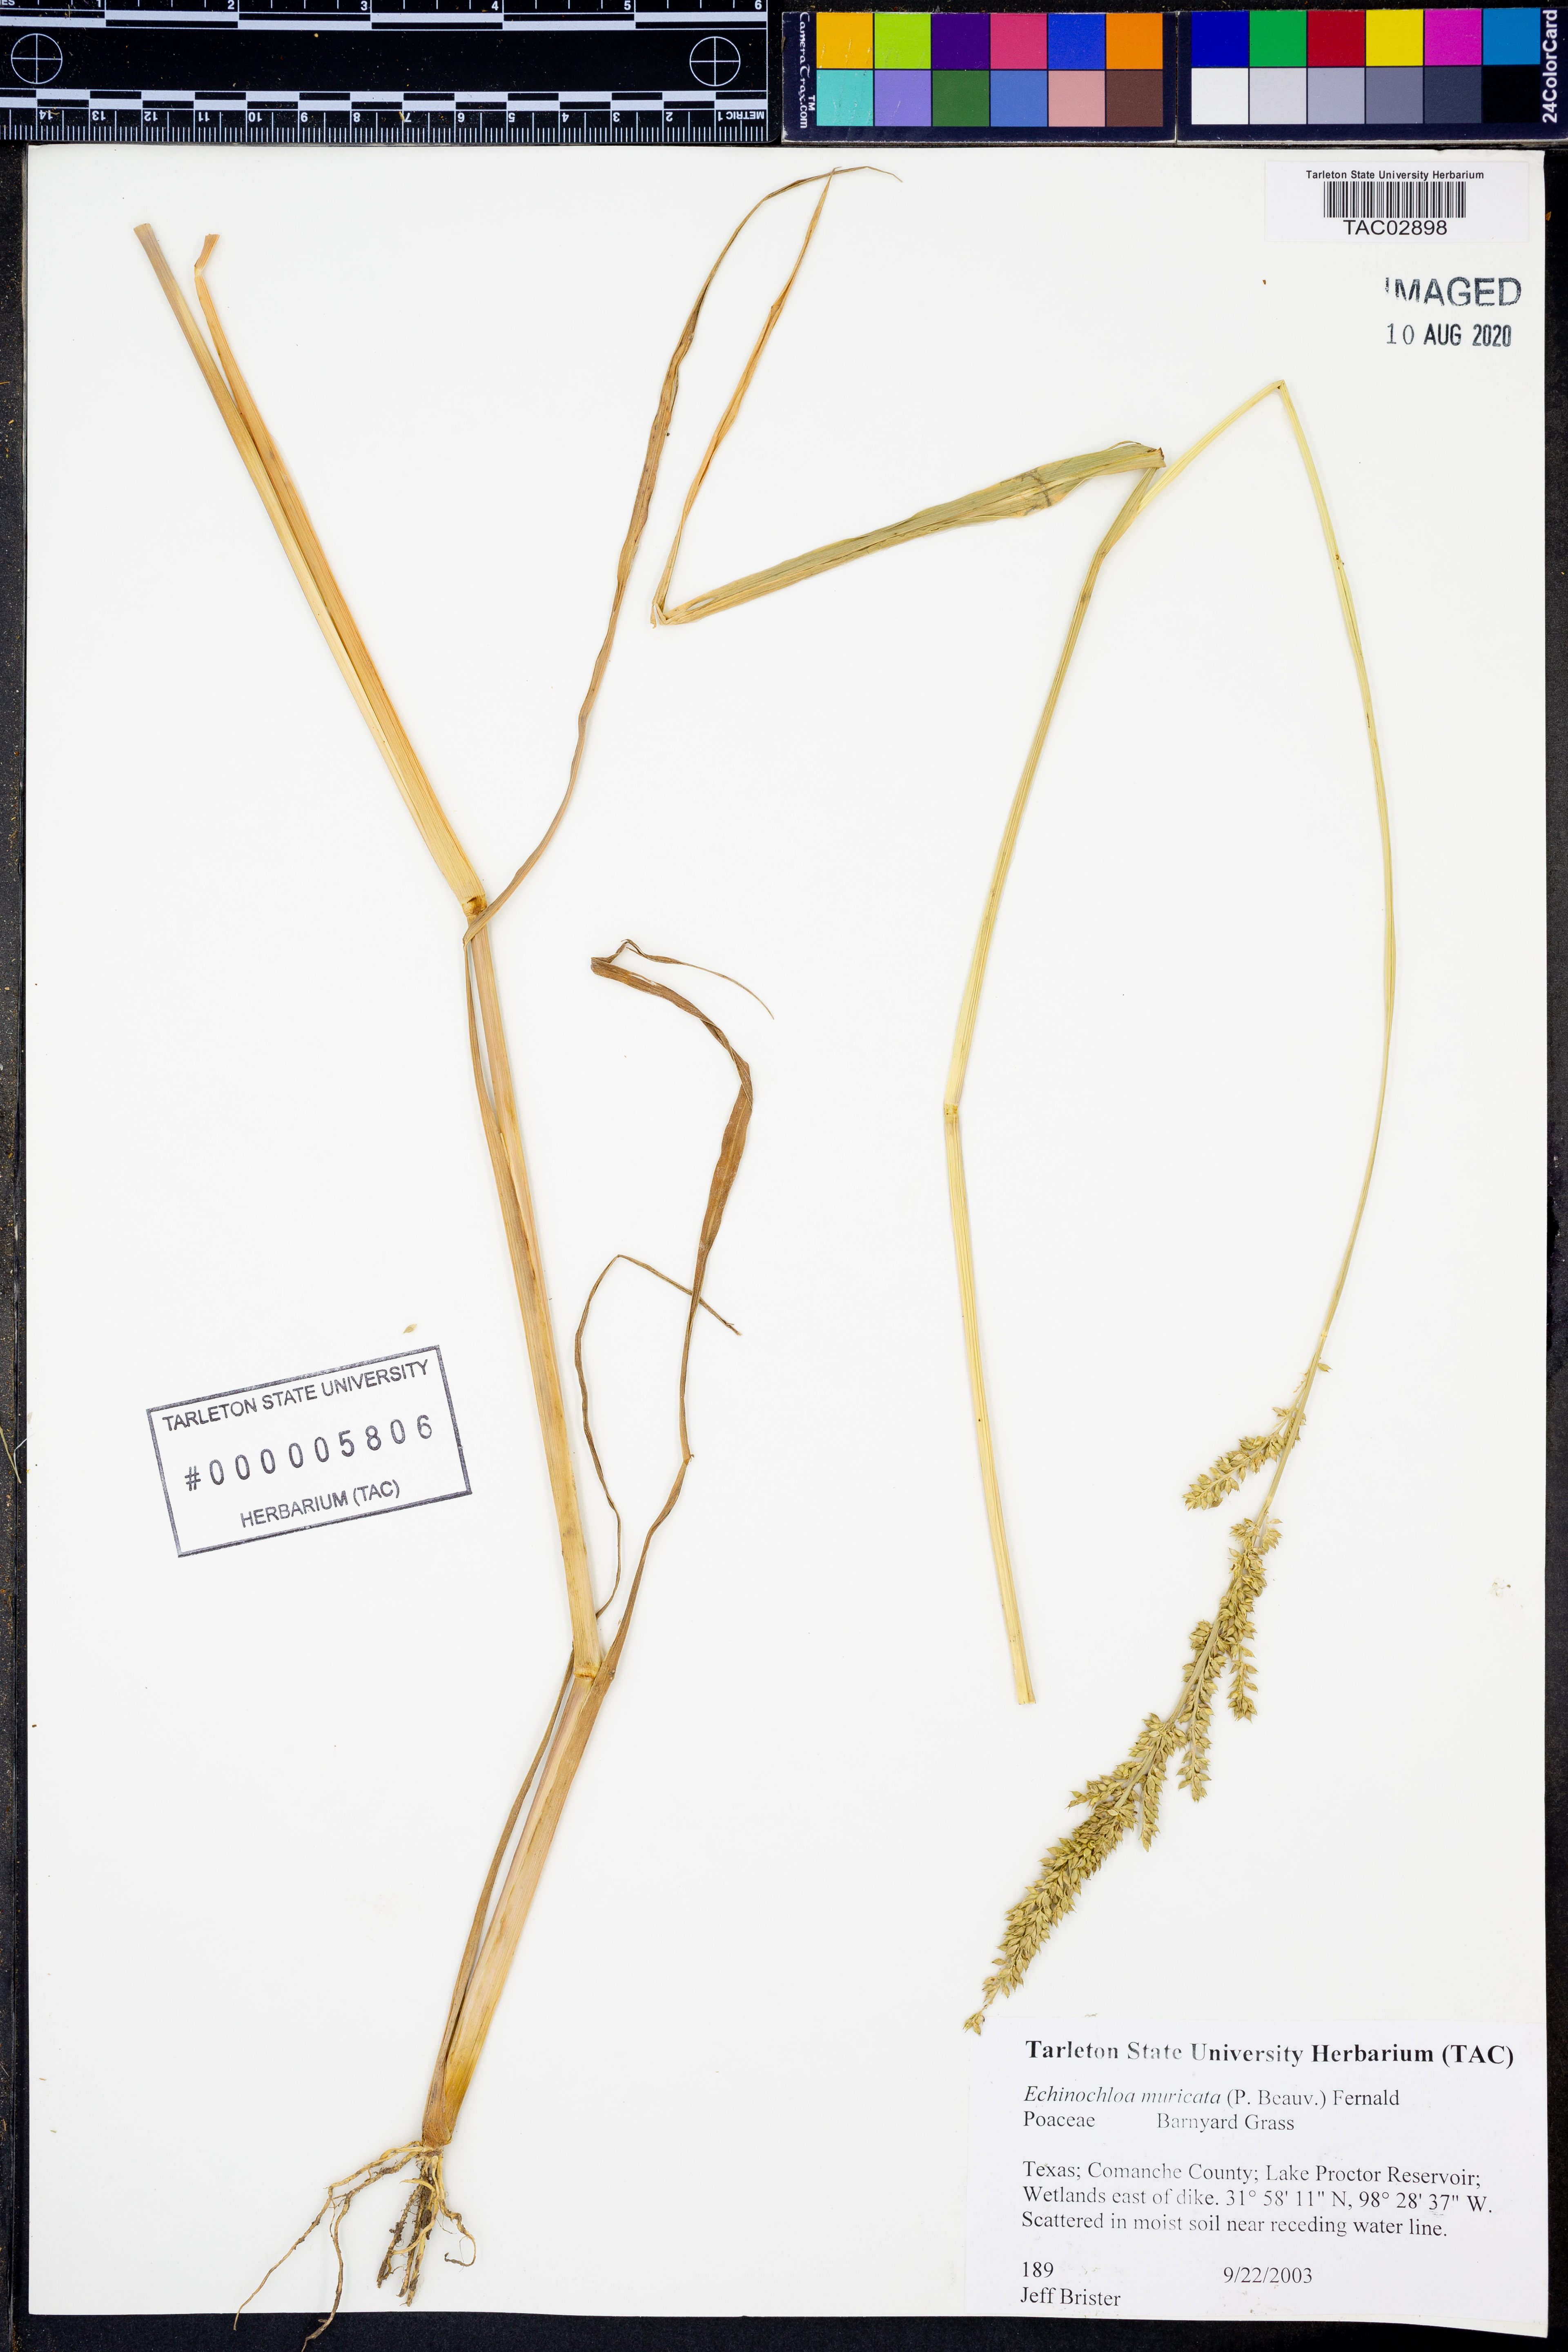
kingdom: Plantae
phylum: Tracheophyta
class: Liliopsida
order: Poales
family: Poaceae
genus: Echinochloa
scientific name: Echinochloa muricata
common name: American barnyard grass
